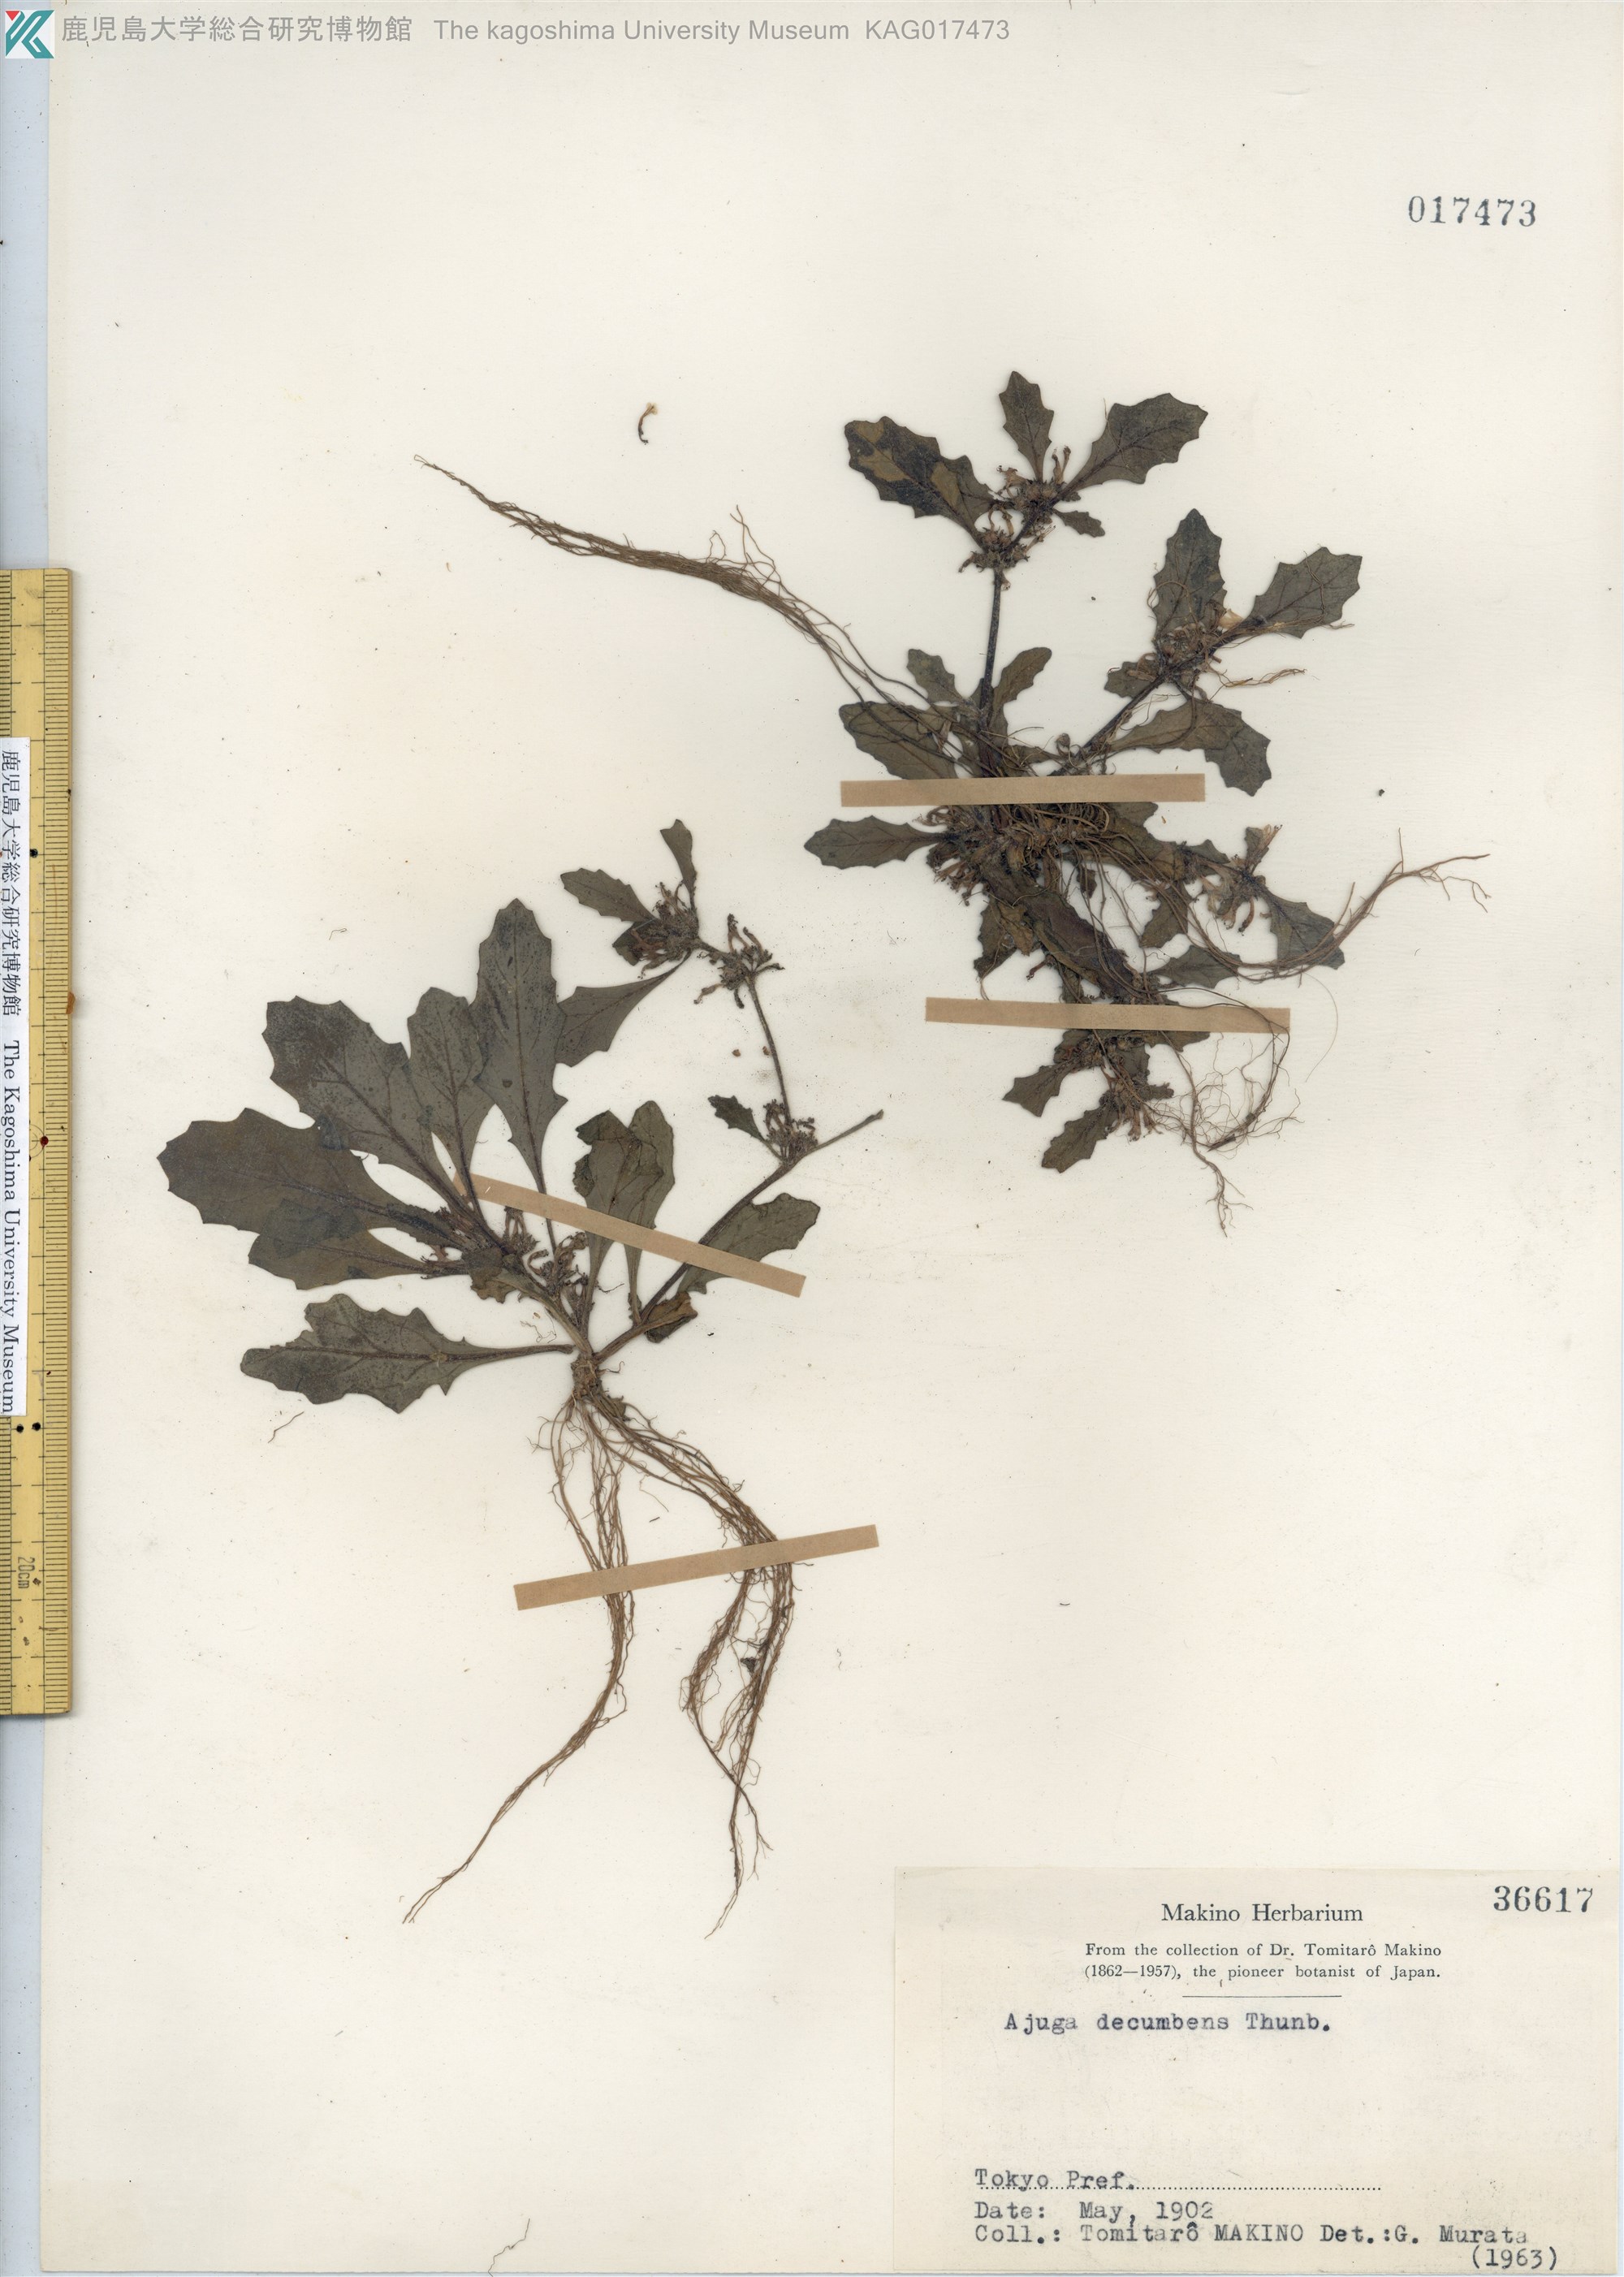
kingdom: Plantae
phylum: Tracheophyta
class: Magnoliopsida
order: Lamiales
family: Lamiaceae
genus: Ajuga
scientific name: Ajuga decumbens
